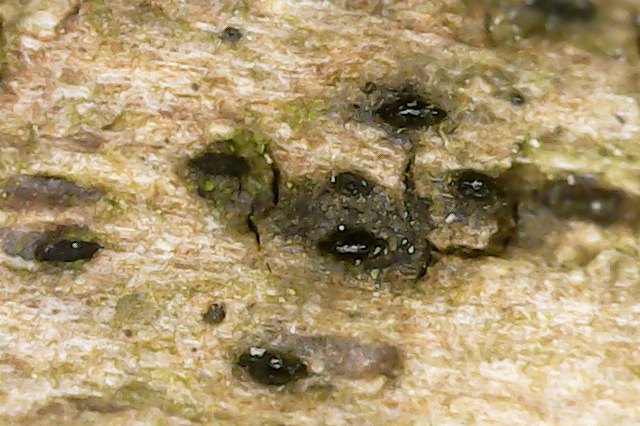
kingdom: Fungi
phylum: Ascomycota
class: Dothideomycetes
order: Pleosporales
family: Lophiostomataceae
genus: Lophiostoma
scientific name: Lophiostoma compressum
